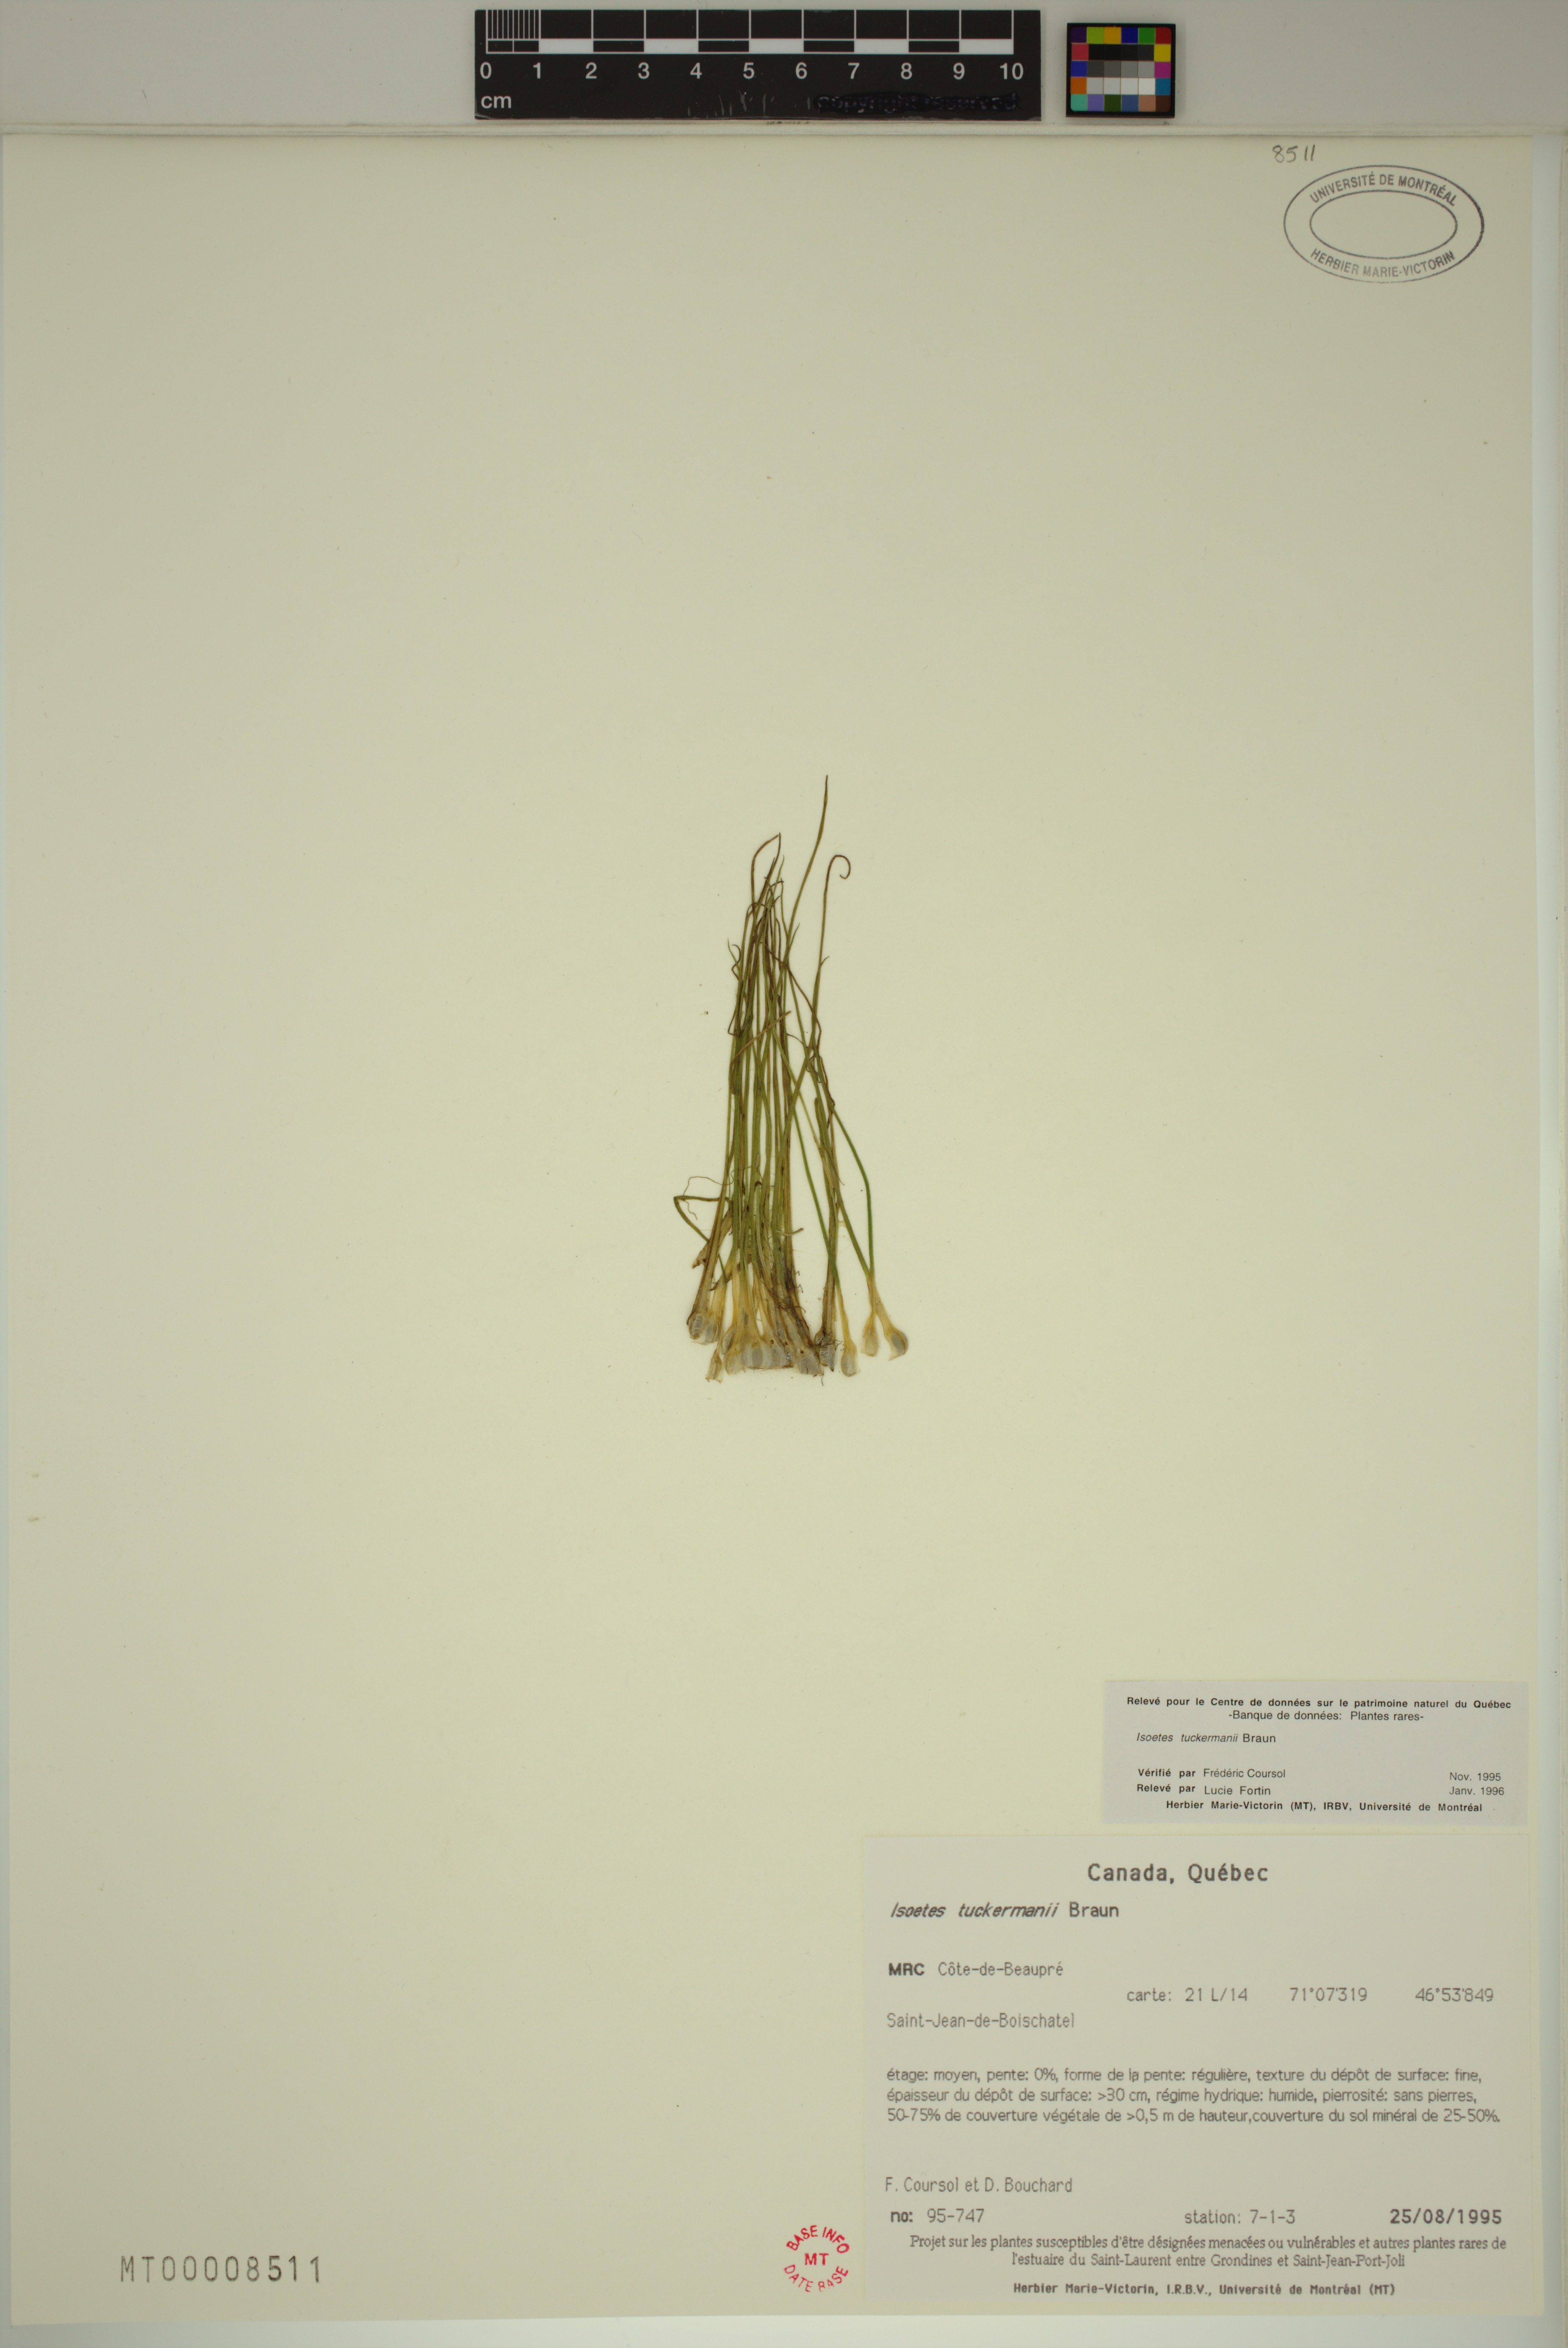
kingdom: Plantae
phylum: Tracheophyta
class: Lycopodiopsida
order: Isoetales
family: Isoetaceae
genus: Isoetes
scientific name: Isoetes laurentiana
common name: St. lawrence quillwort
